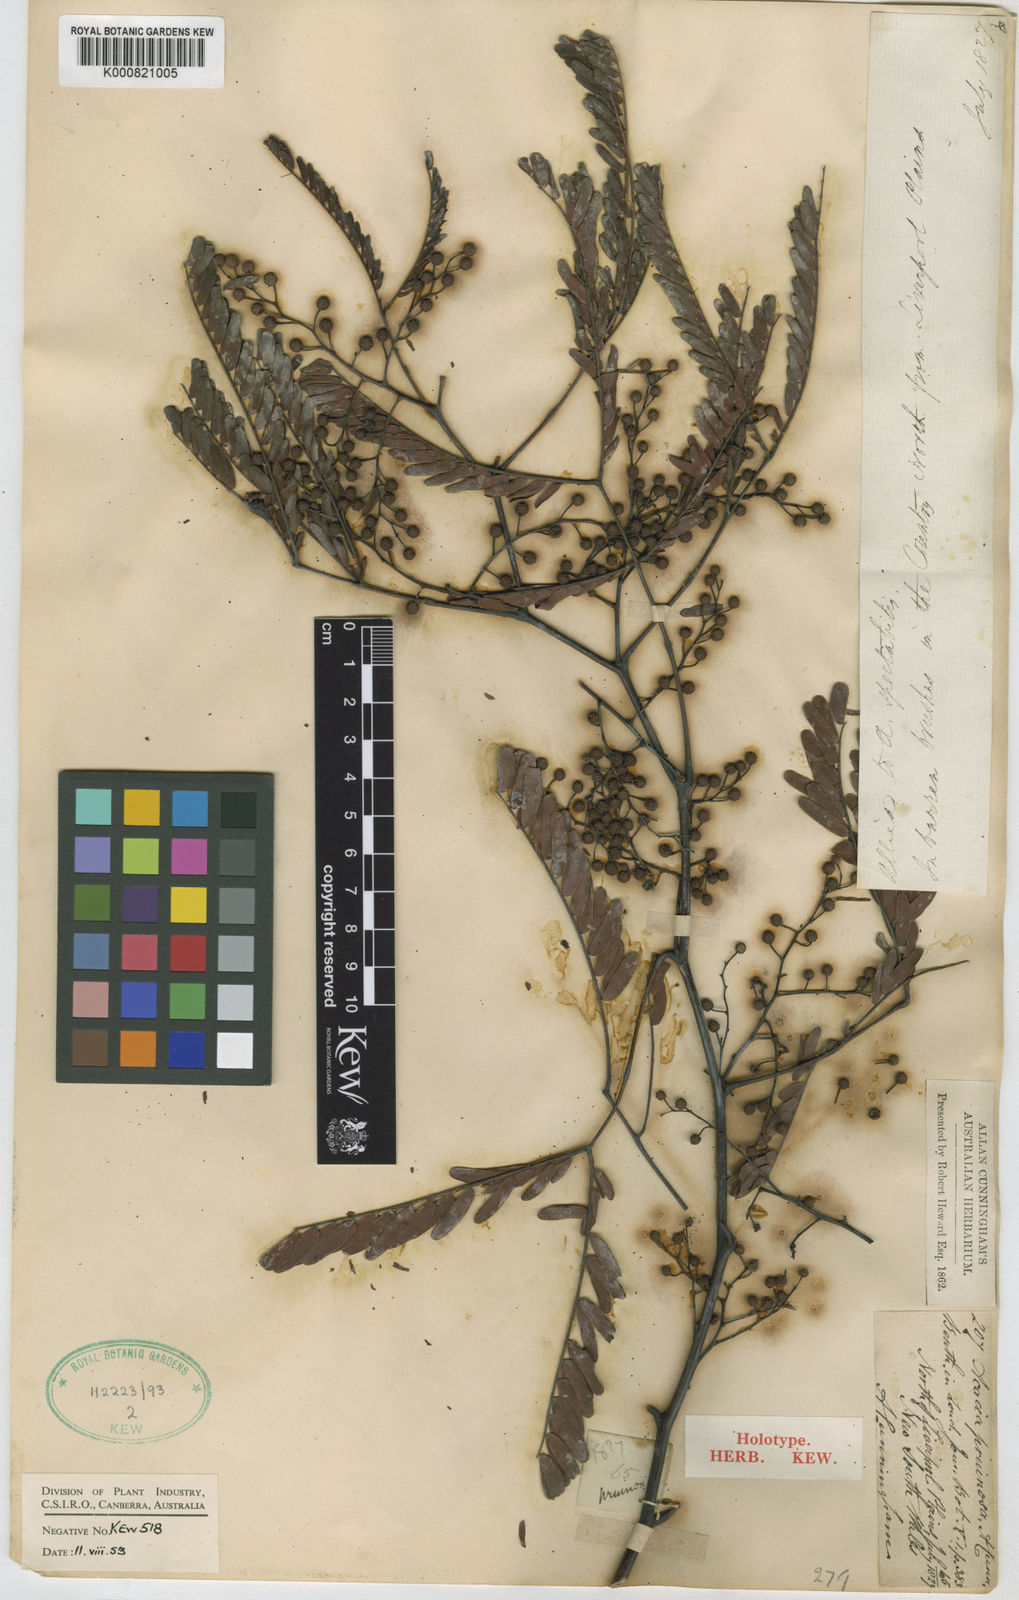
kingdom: Plantae
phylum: Tracheophyta
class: Magnoliopsida
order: Fabales
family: Fabaceae
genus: Acacia
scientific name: Acacia pruinosa
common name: Frosty wattle
